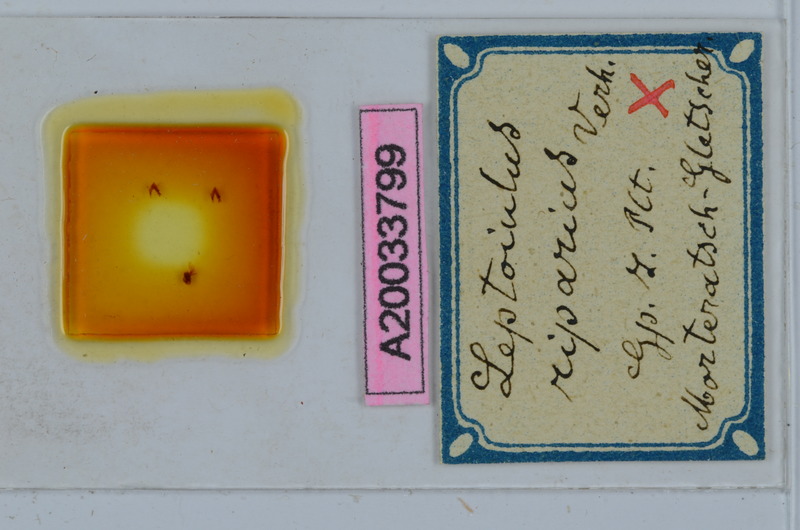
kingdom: Animalia
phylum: Arthropoda
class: Diplopoda
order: Julida
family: Julidae
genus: Leptoiulus
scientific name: Leptoiulus riparius
